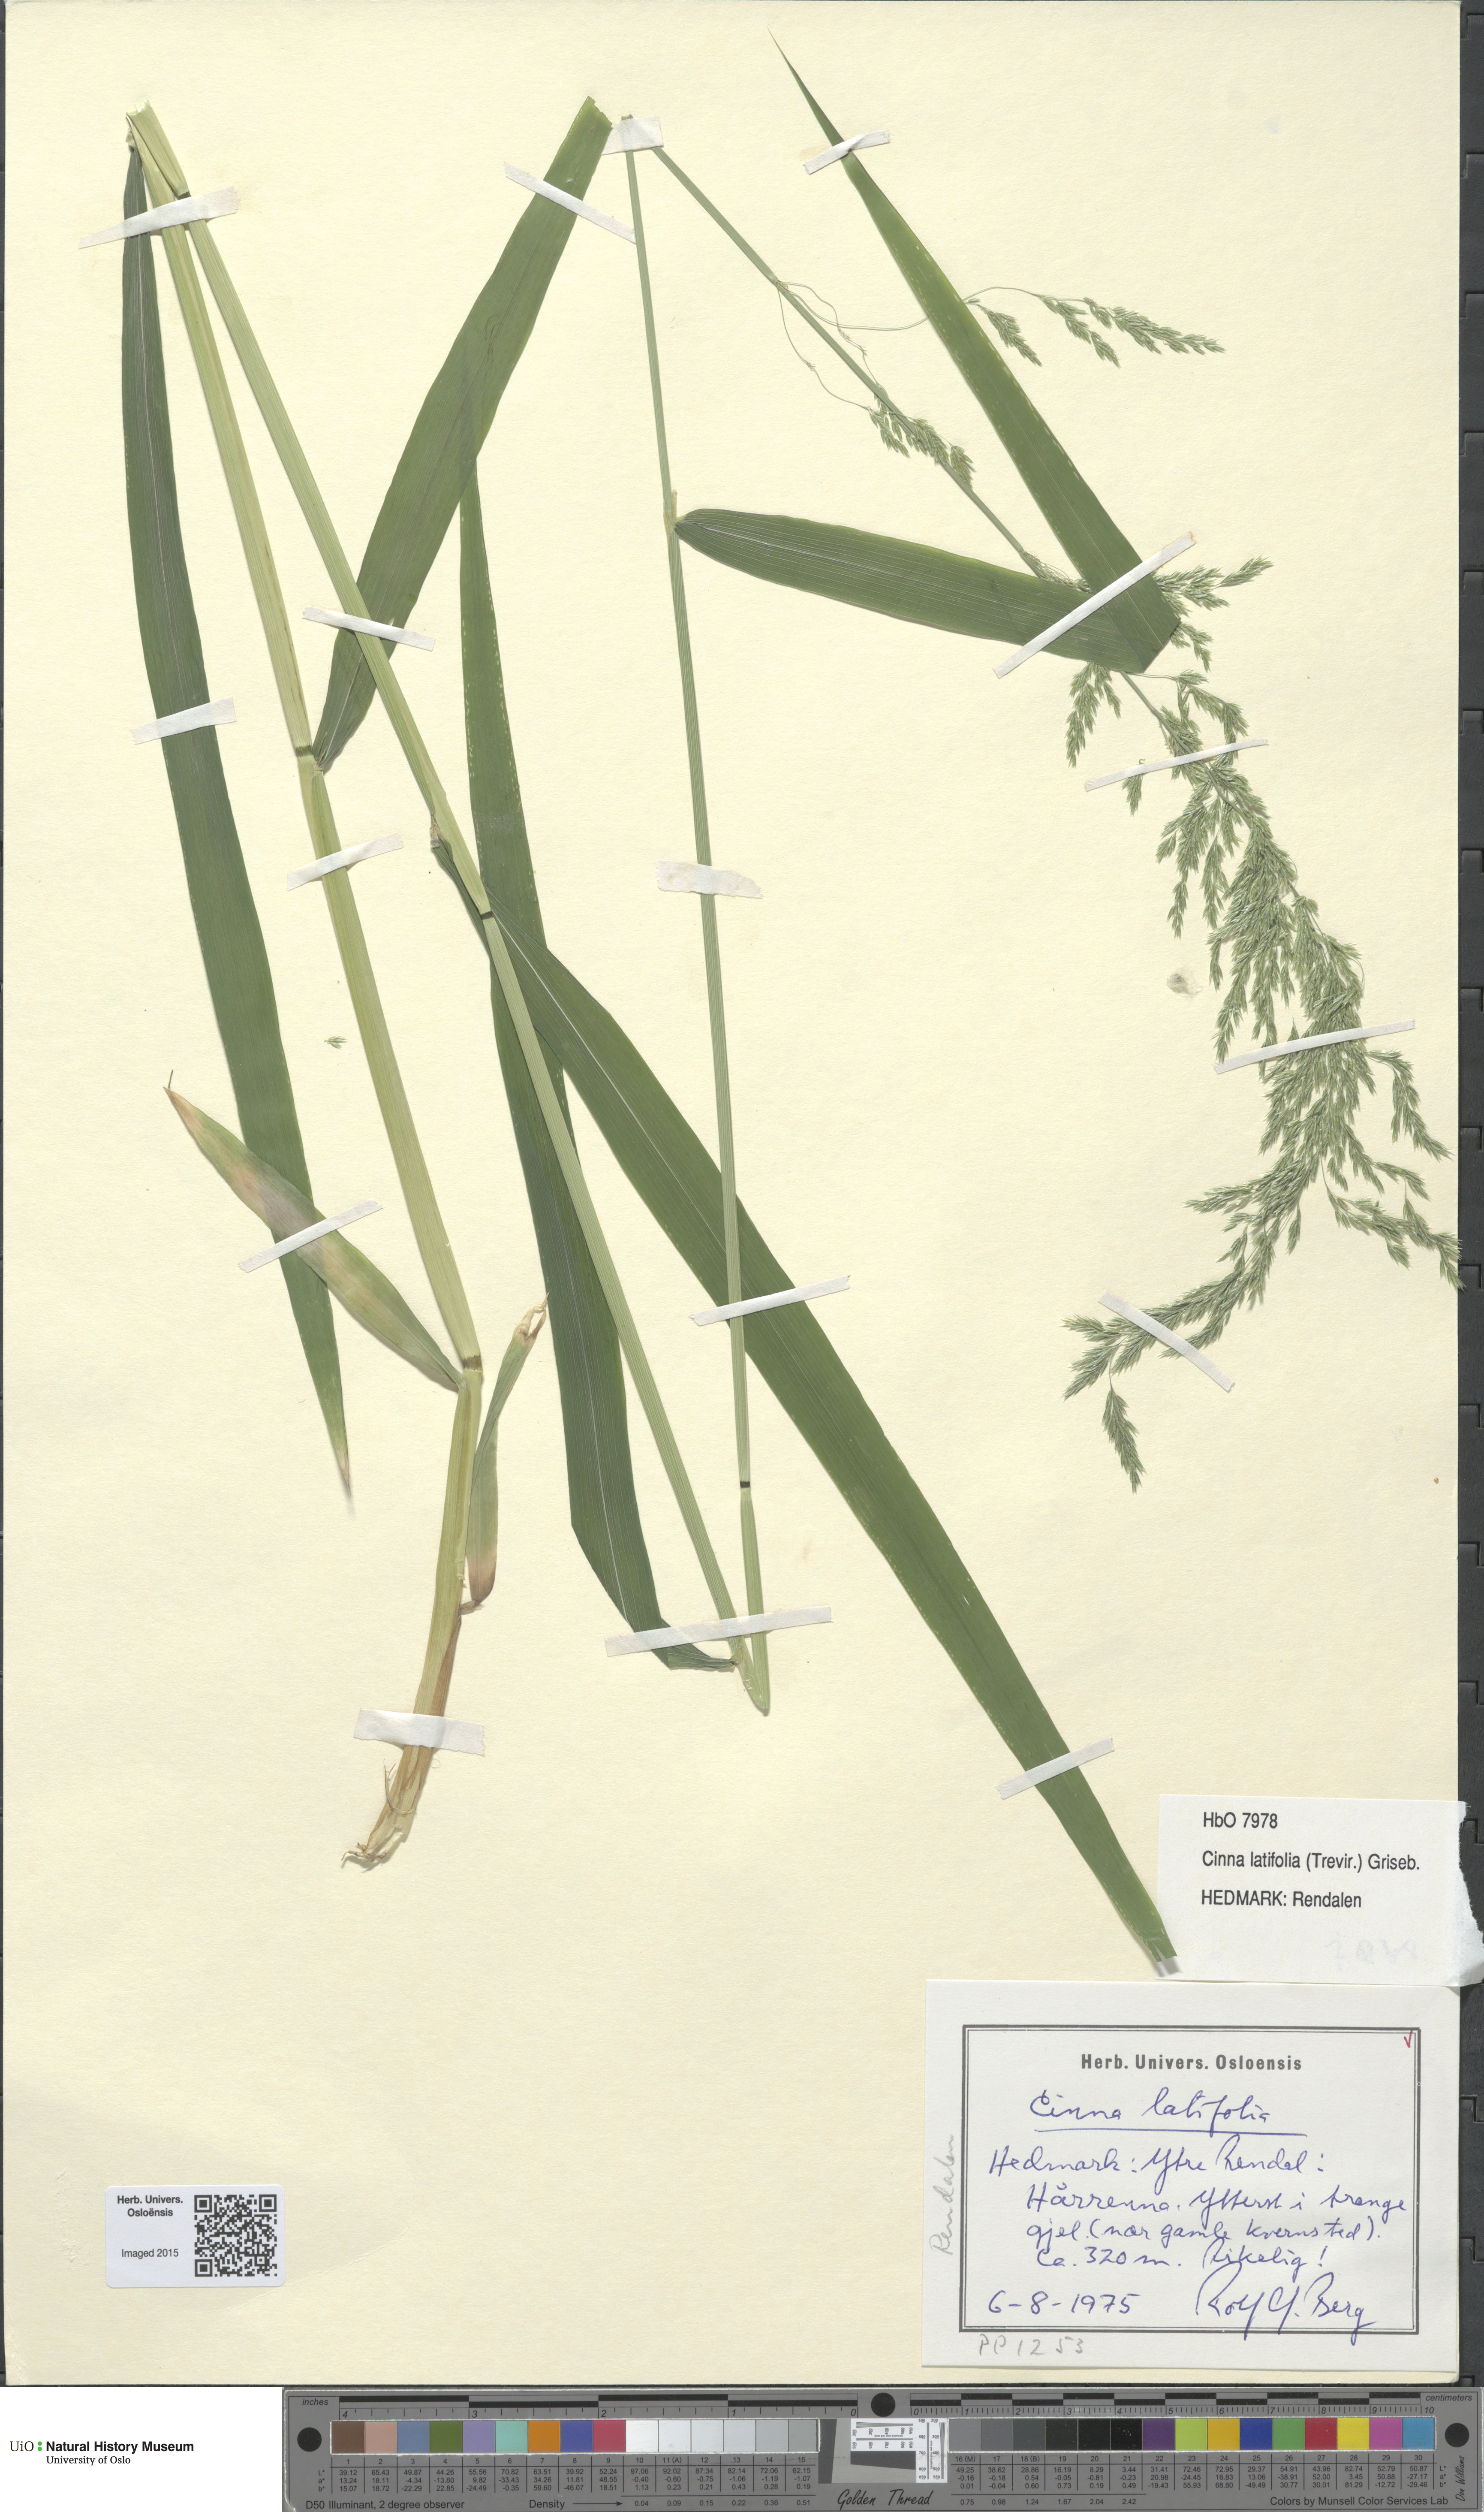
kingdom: Plantae
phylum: Tracheophyta
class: Liliopsida
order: Poales
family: Poaceae
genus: Cinna
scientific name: Cinna latifolia
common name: Drooping woodreed
